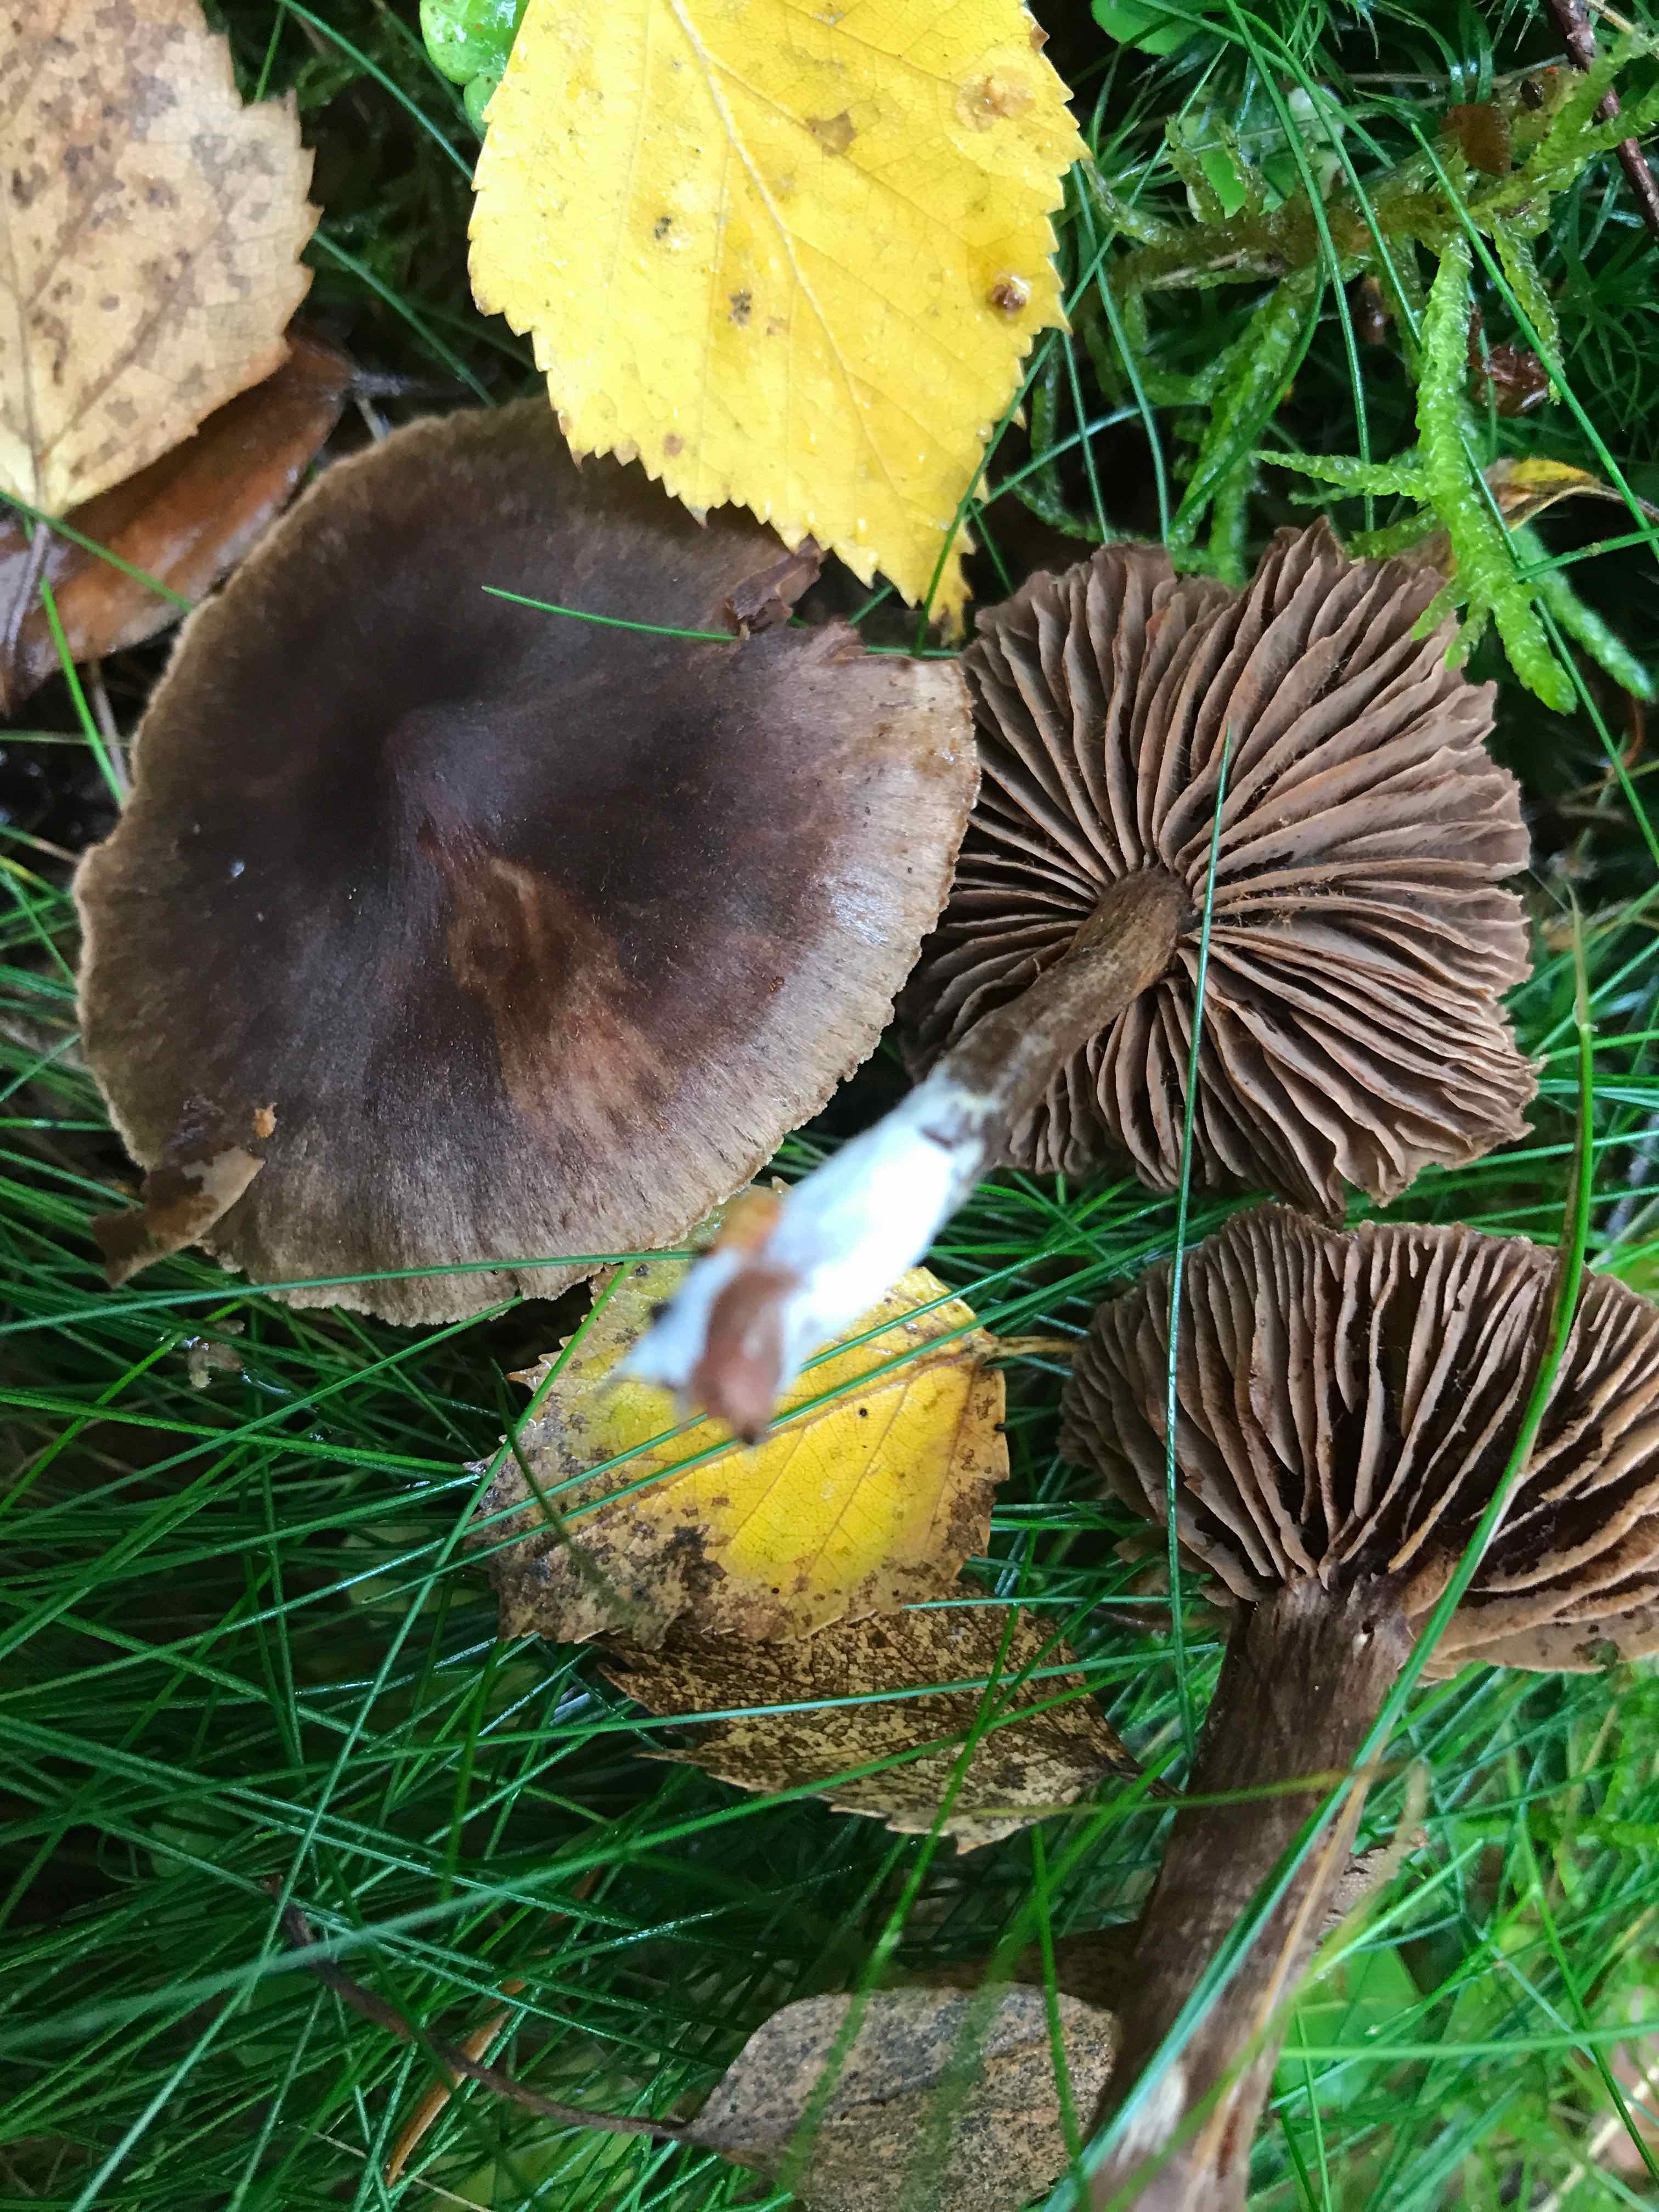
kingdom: Fungi
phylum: Basidiomycota
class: Agaricomycetes
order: Agaricales
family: Cortinariaceae
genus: Cortinarius
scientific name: Cortinarius umbrinolens
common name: mørk slørhat
